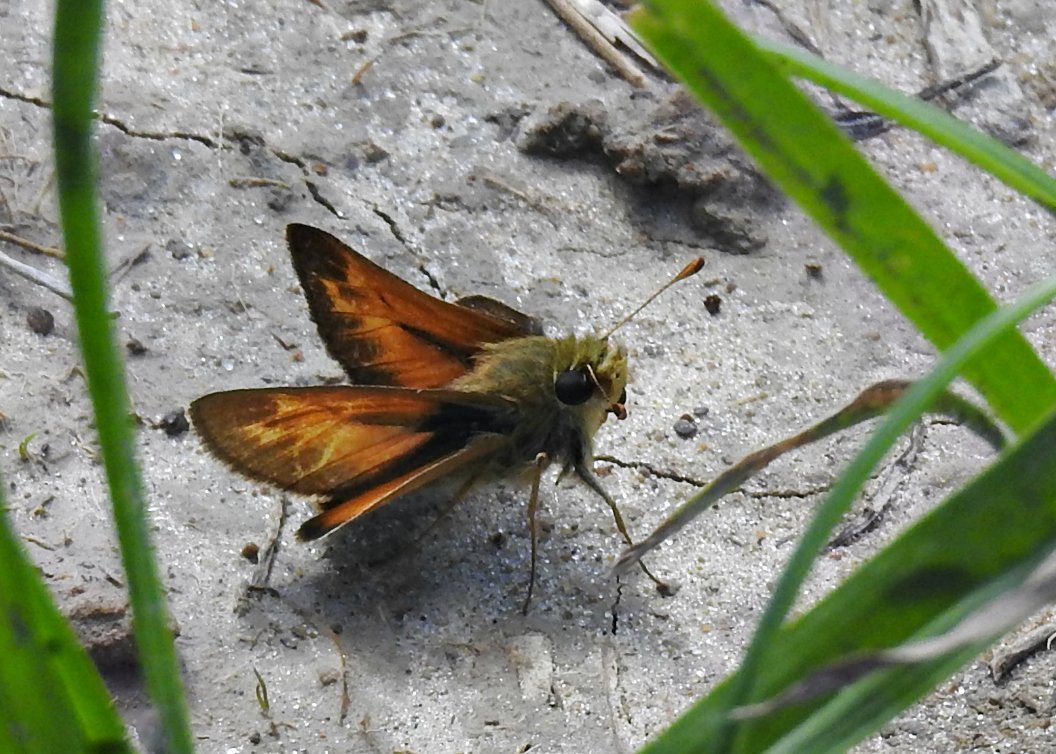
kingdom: Animalia
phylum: Arthropoda
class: Insecta
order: Lepidoptera
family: Hesperiidae
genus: Hesperia
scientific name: Hesperia sassacus
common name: Sassacus Skipper
